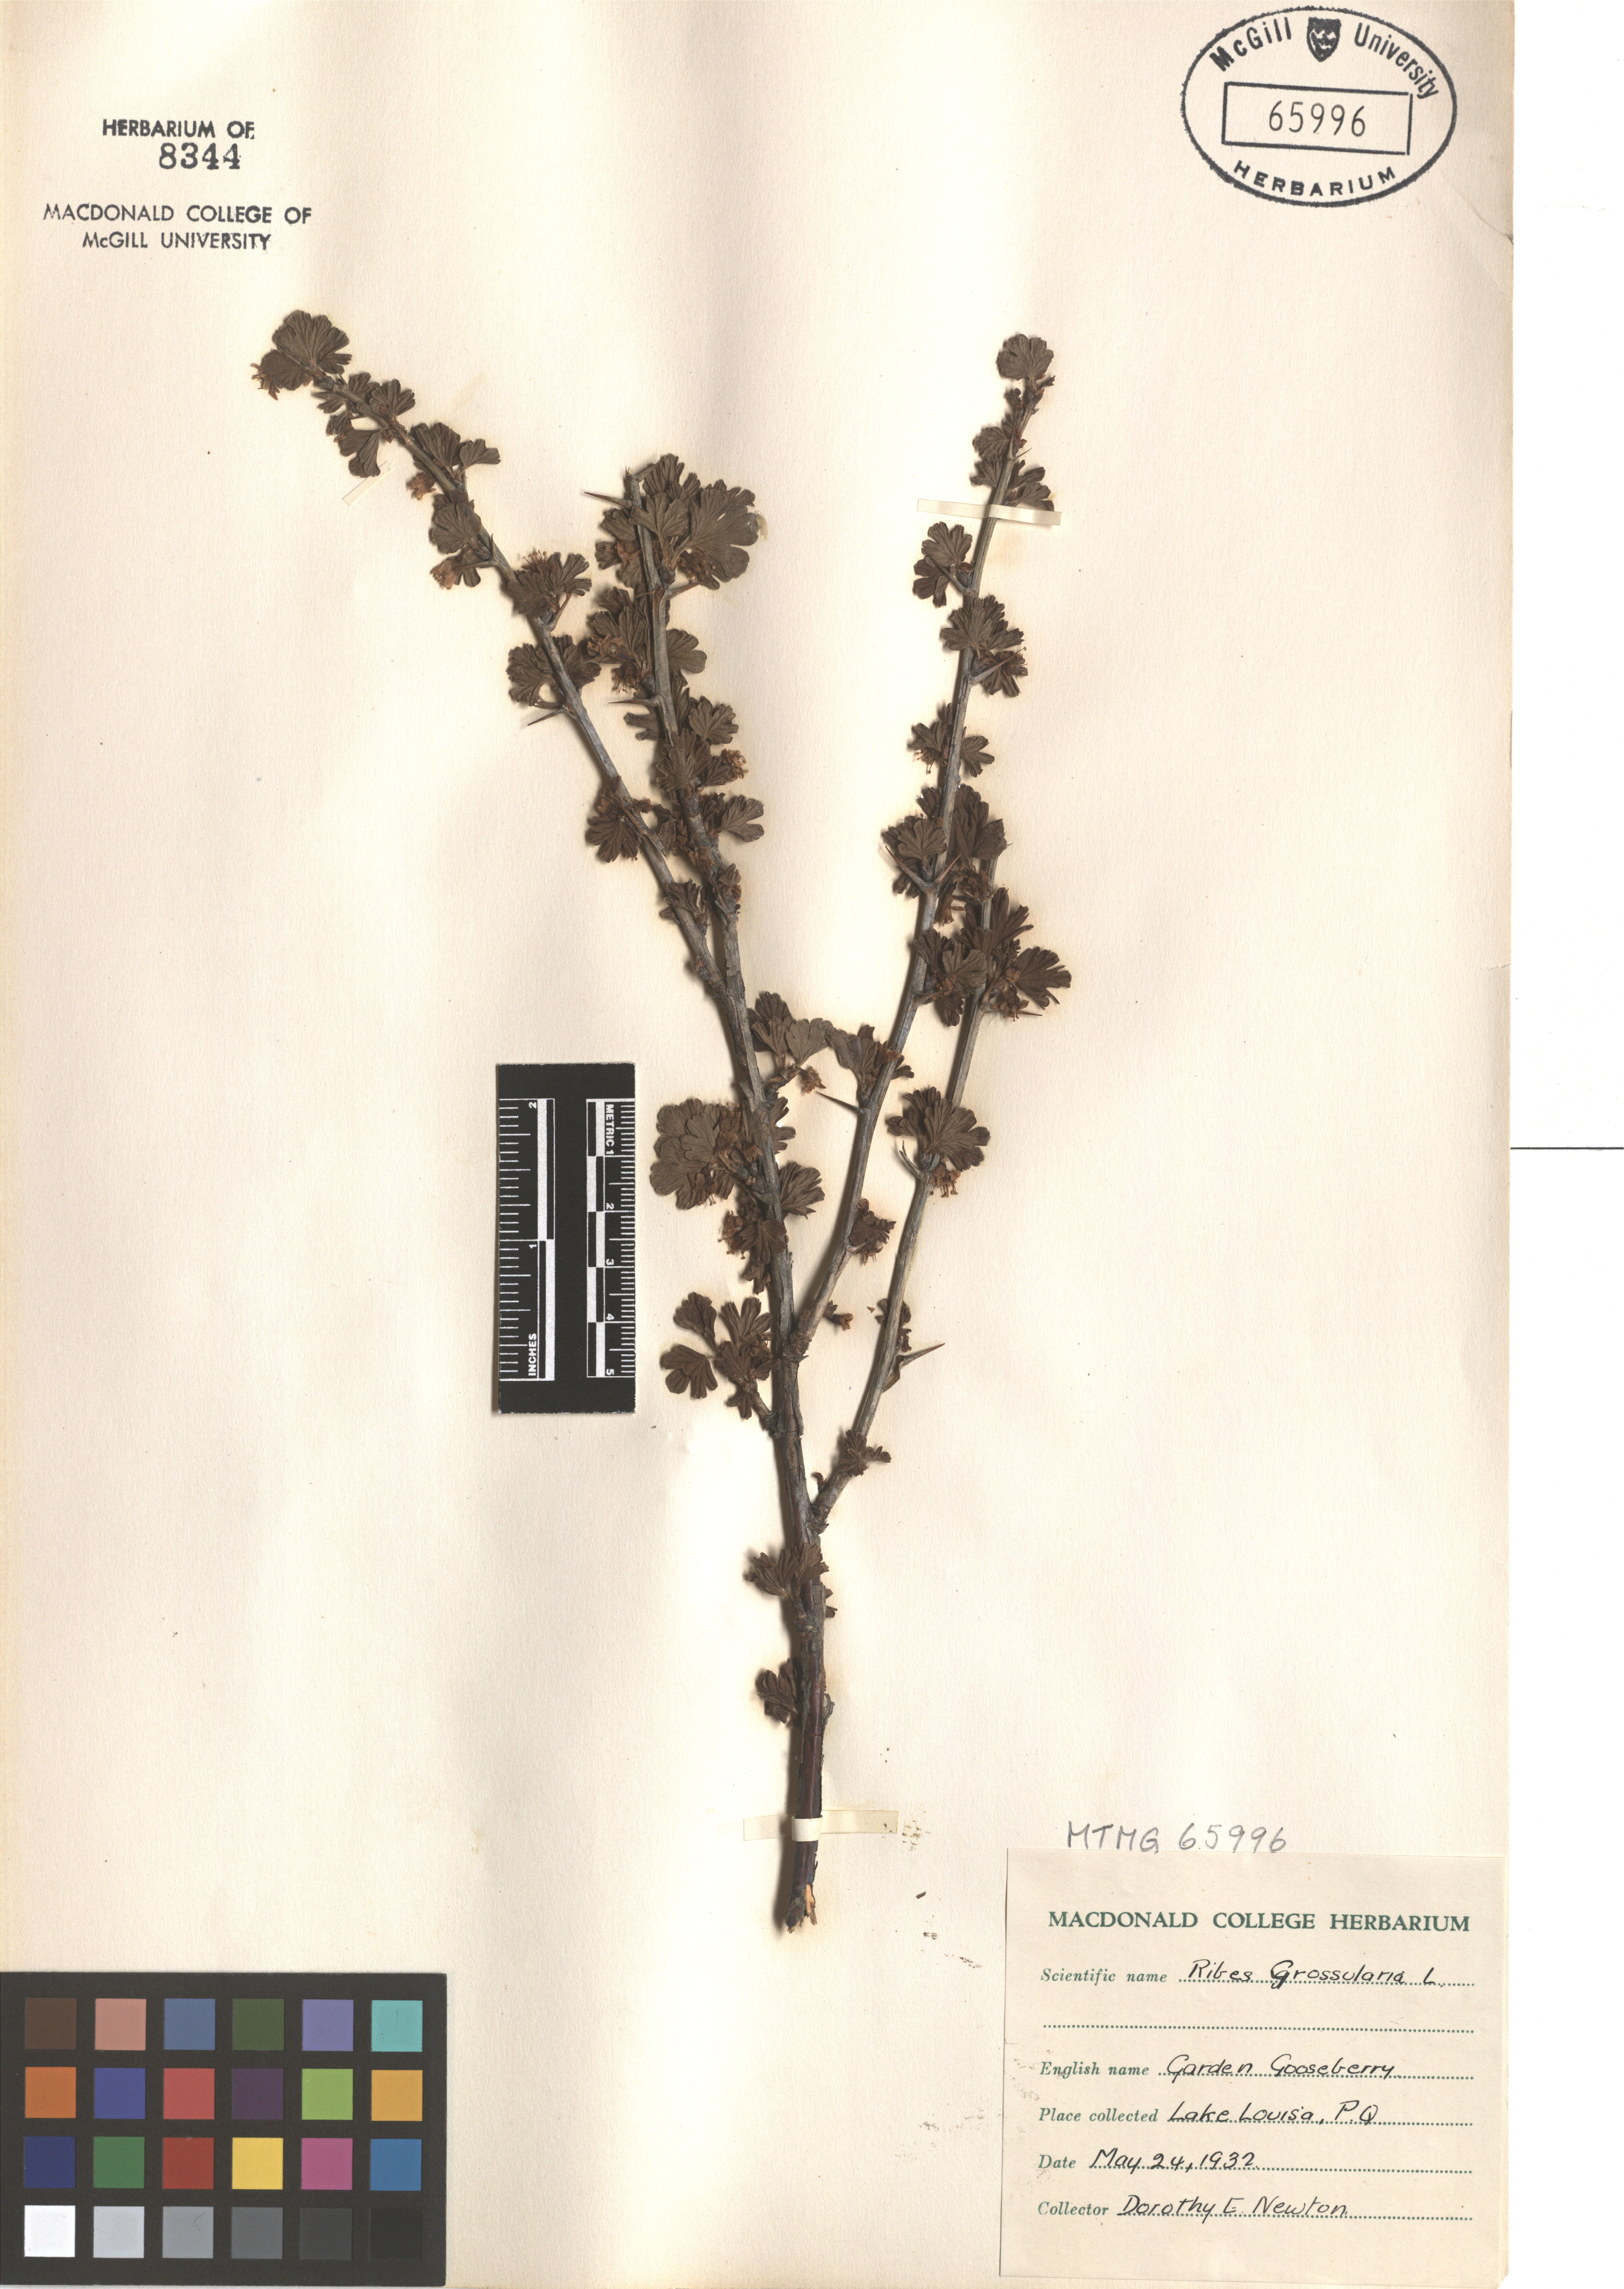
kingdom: Plantae
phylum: Tracheophyta
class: Magnoliopsida
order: Saxifragales
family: Grossulariaceae
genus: Ribes
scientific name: Ribes uva-crispa
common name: Gooseberry
